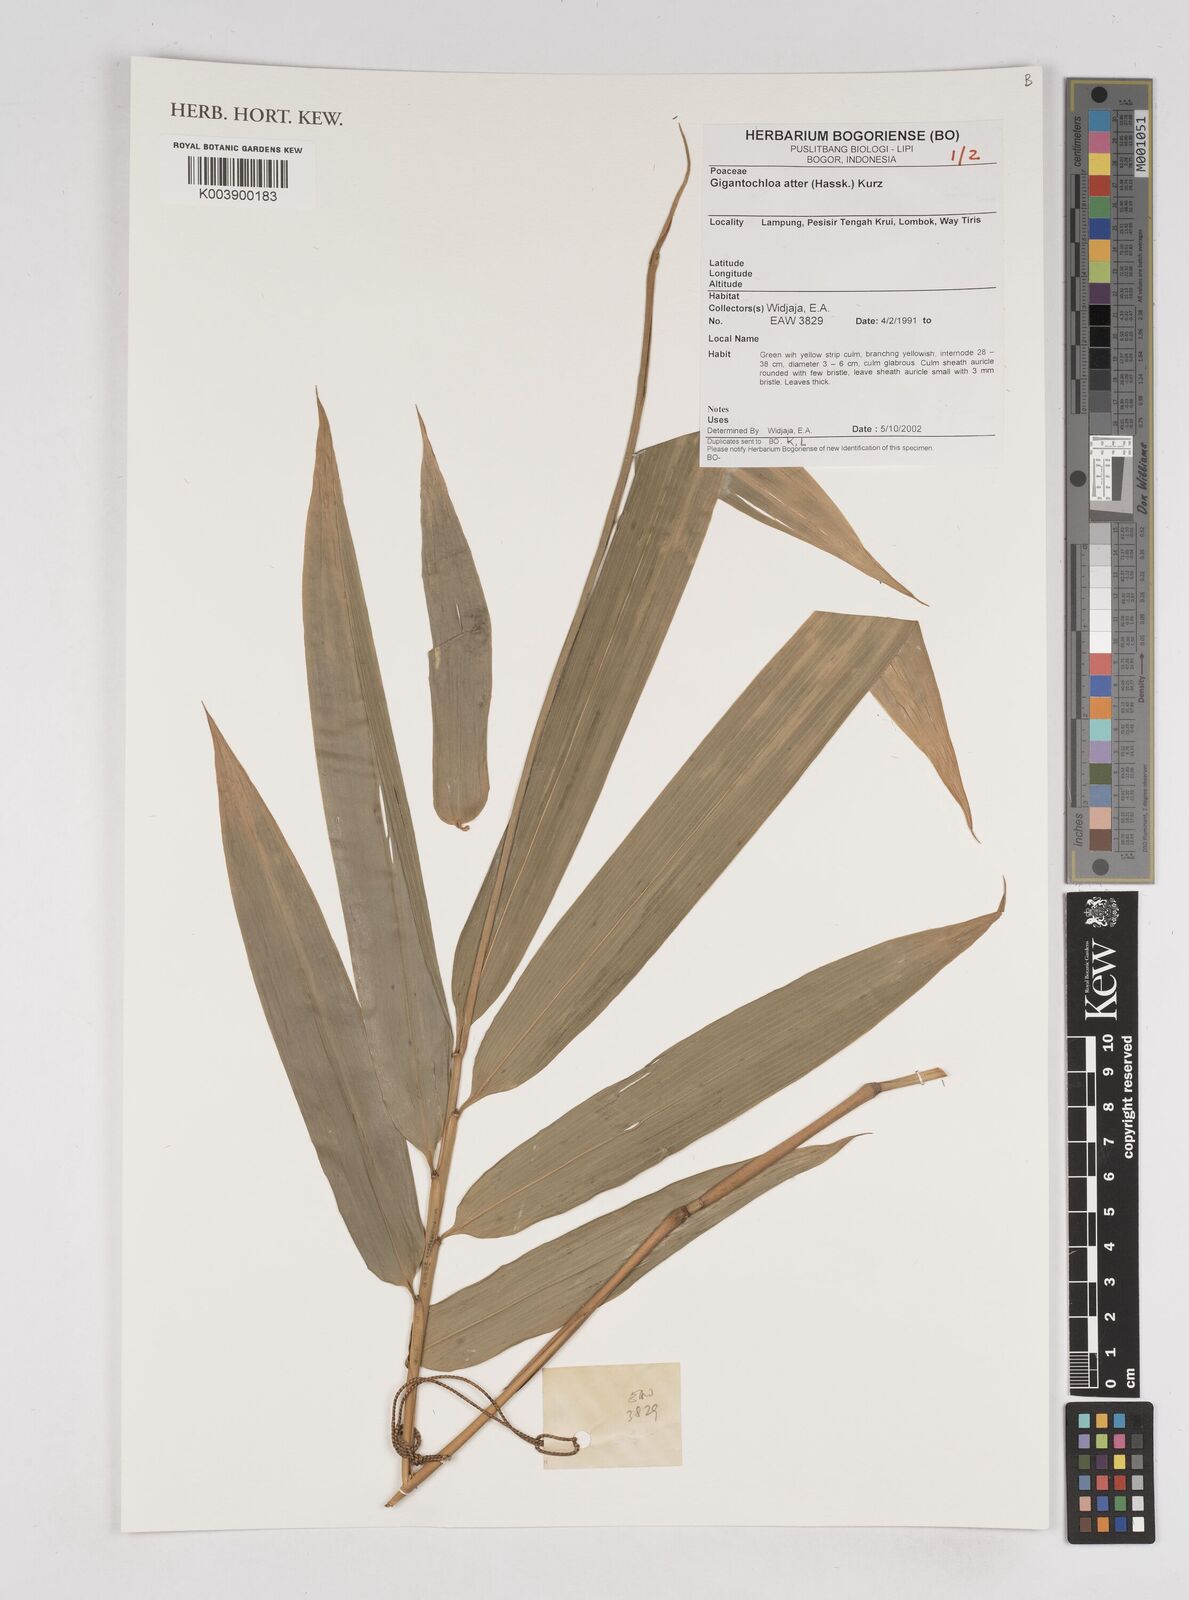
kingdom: Plantae
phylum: Tracheophyta
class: Liliopsida
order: Poales
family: Poaceae
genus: Gigantochloa
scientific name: Gigantochloa atter
